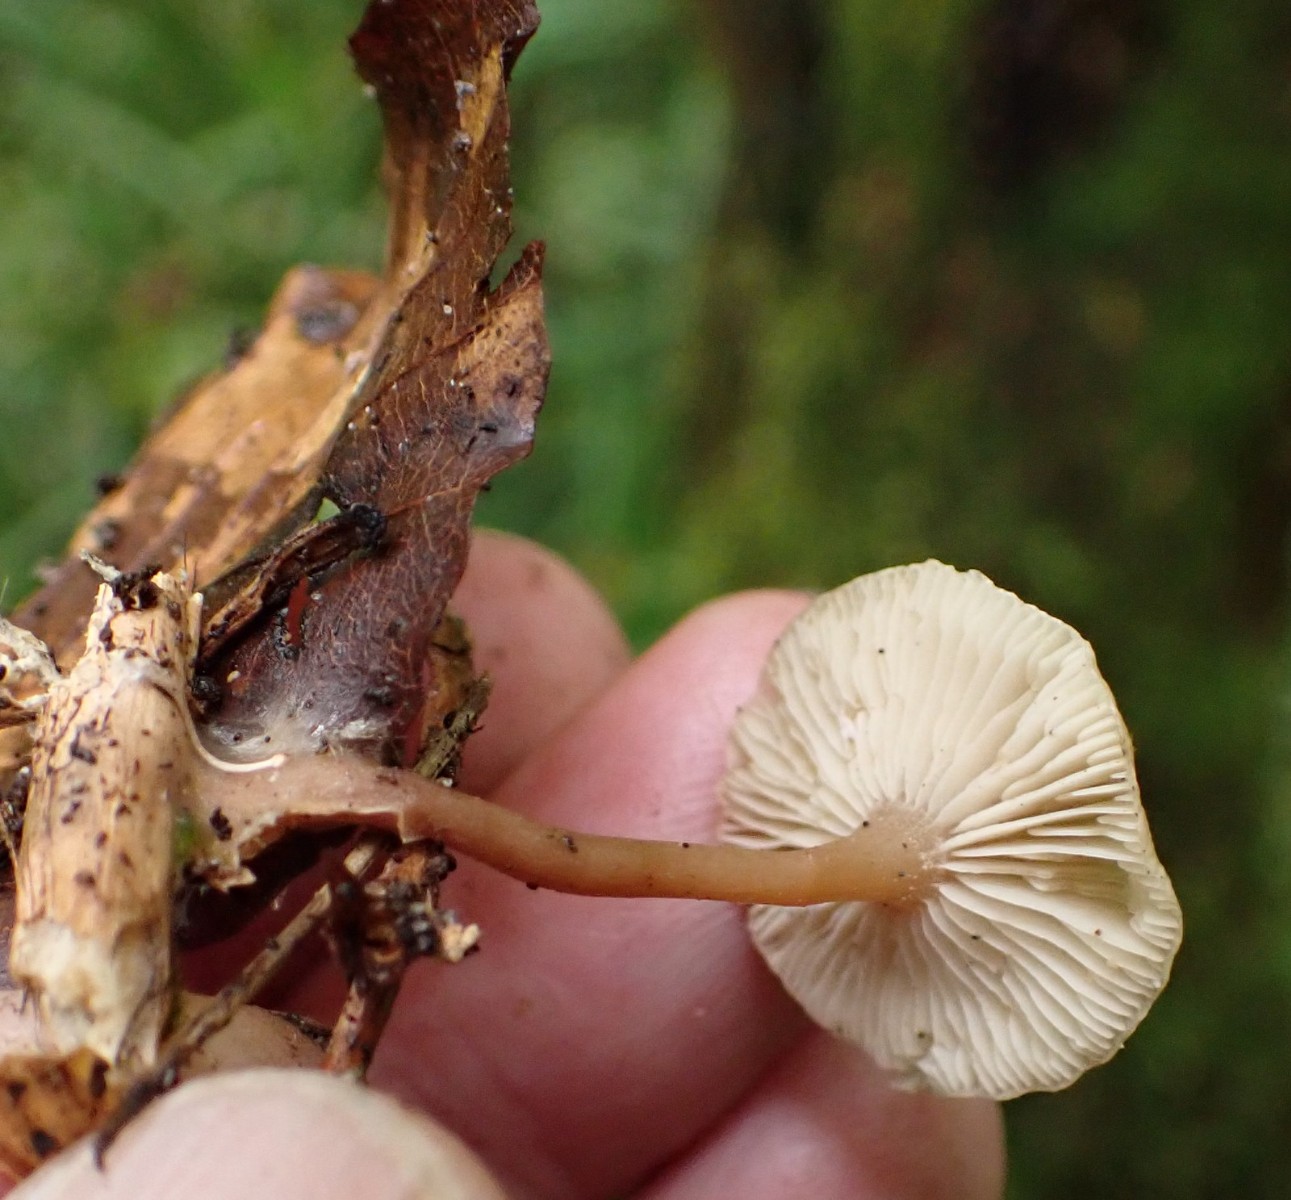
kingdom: Fungi
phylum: Basidiomycota
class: Agaricomycetes
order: Agaricales
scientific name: Agaricales
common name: champignonordenen
